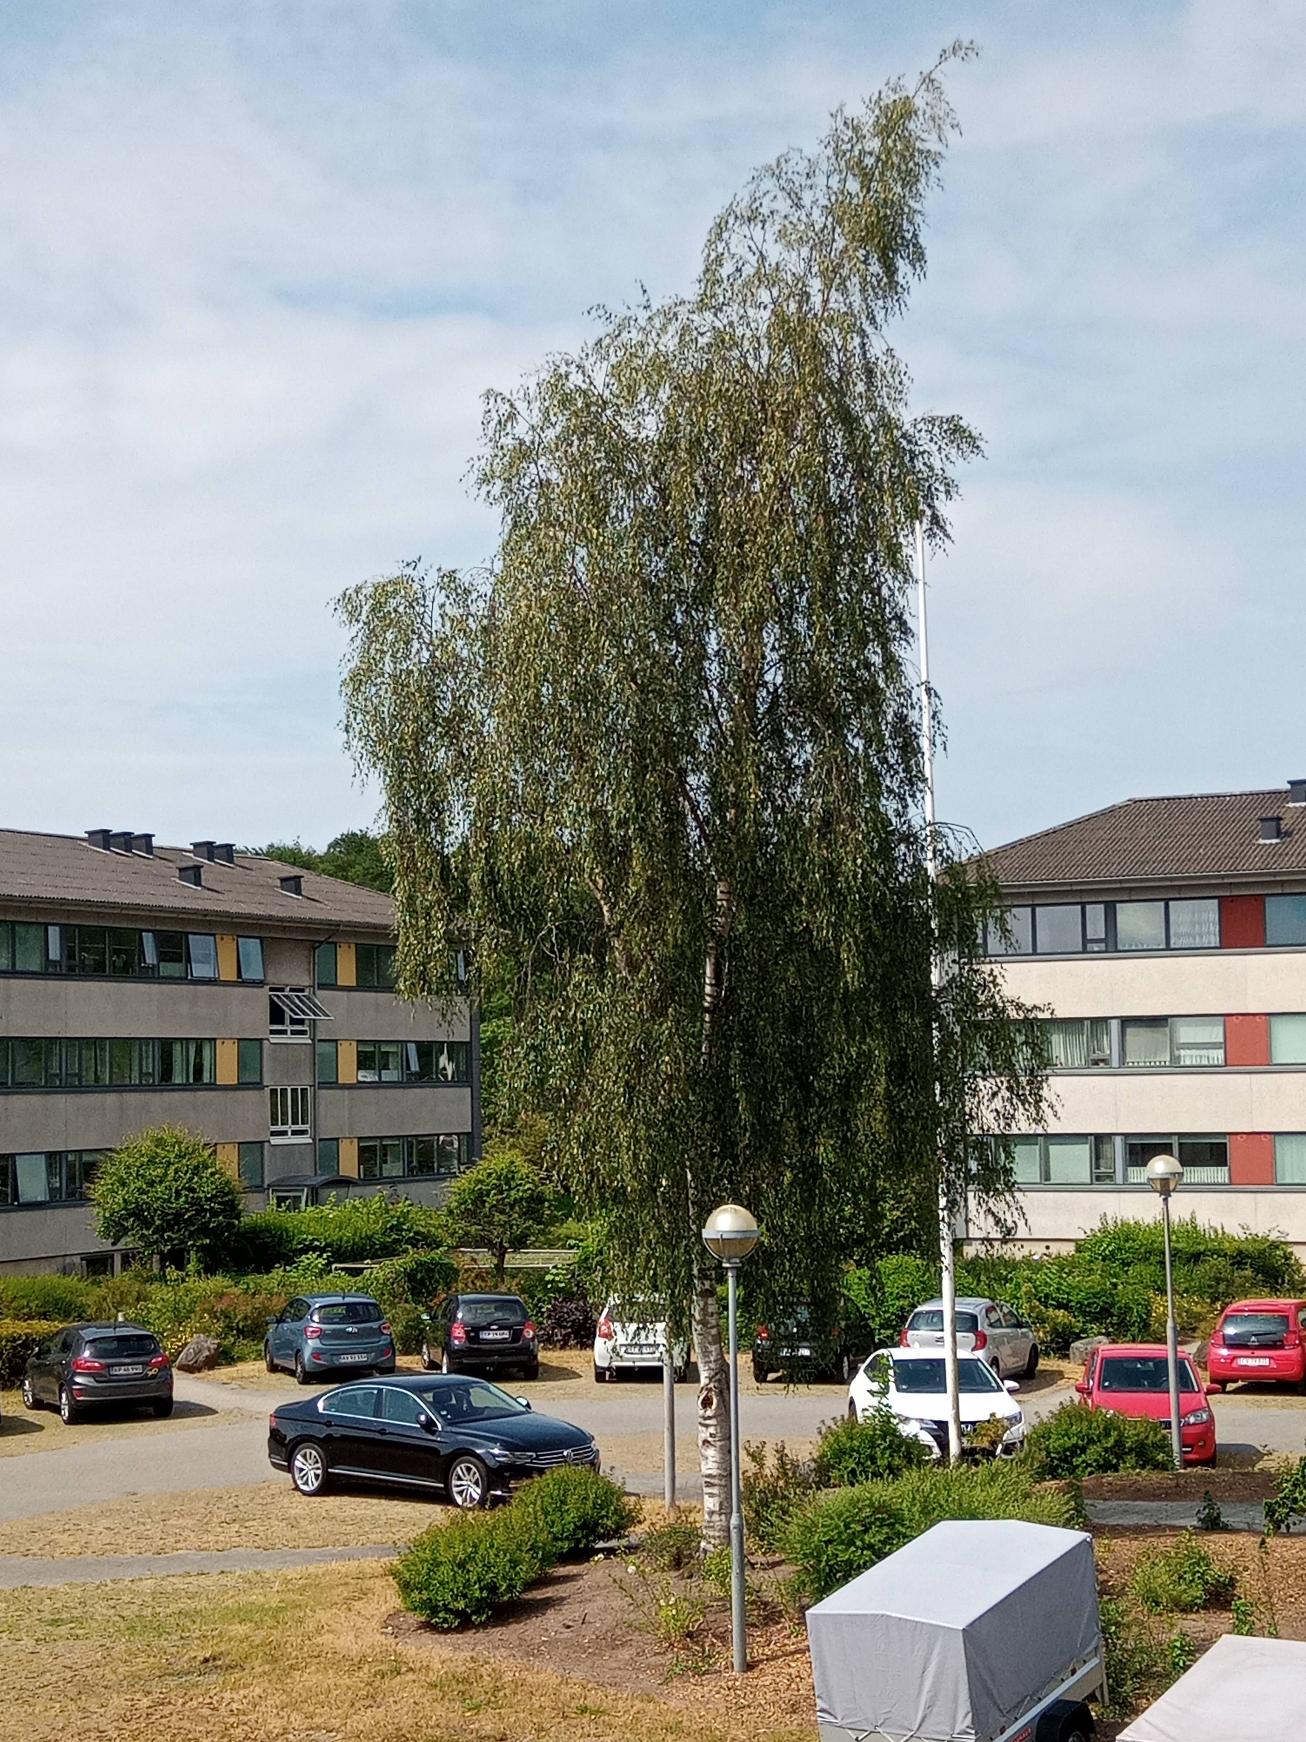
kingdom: Plantae
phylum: Tracheophyta
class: Magnoliopsida
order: Fagales
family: Betulaceae
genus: Betula
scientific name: Betula pendula
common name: Vorte-birk
